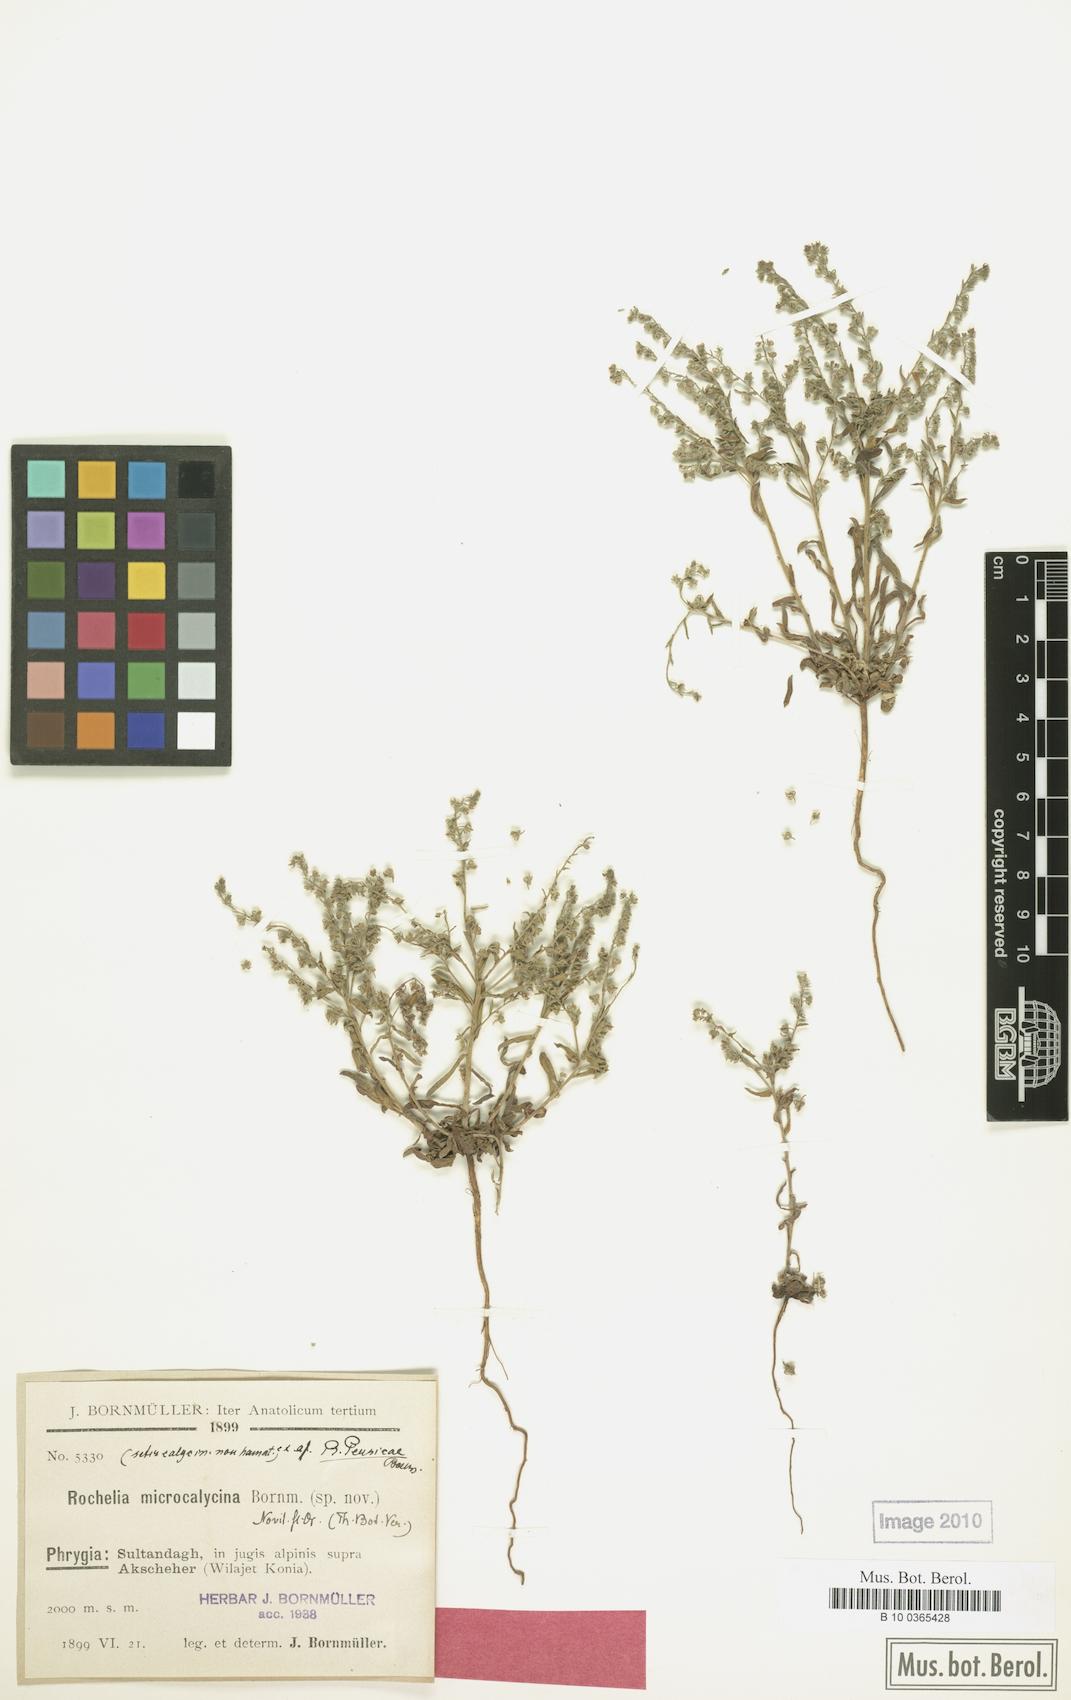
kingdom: Plantae
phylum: Tracheophyta
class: Magnoliopsida
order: Boraginales
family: Boraginaceae
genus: Rochelia
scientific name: Rochelia disperma
